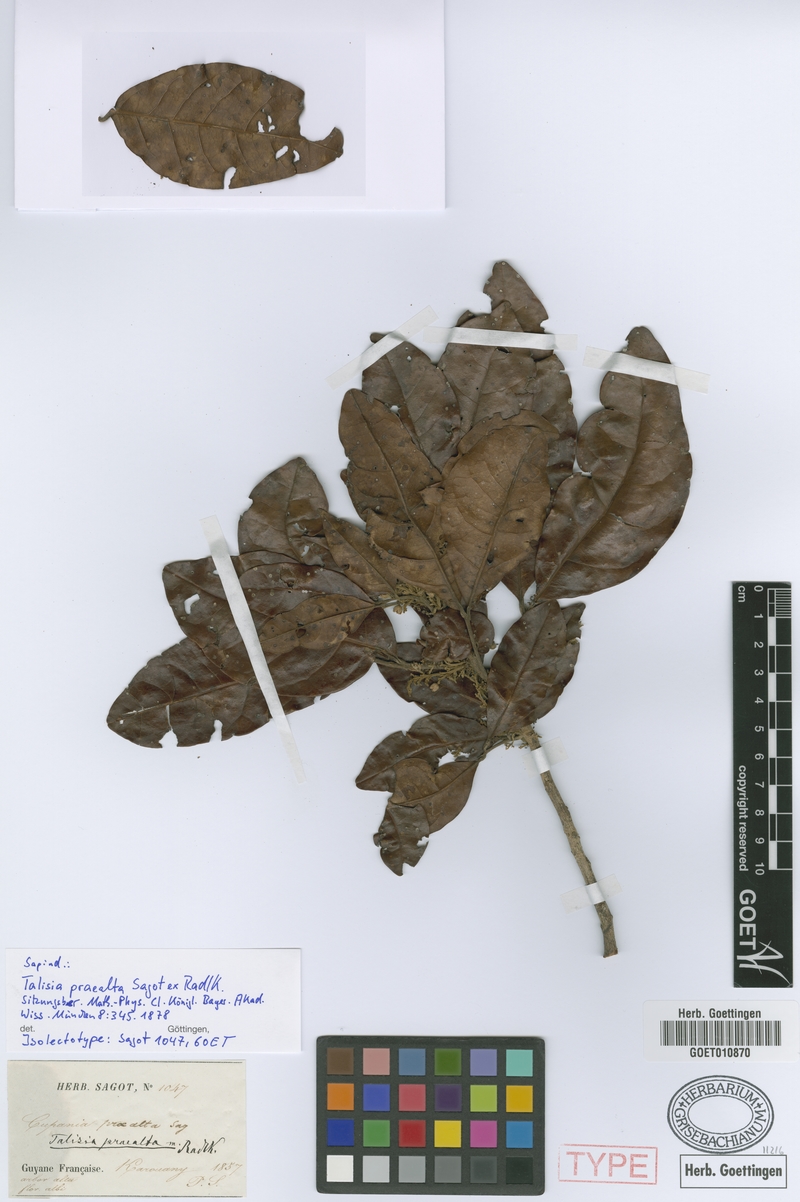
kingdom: Plantae
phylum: Tracheophyta
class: Magnoliopsida
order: Sapindales
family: Sapindaceae
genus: Talisia
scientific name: Talisia praealta
